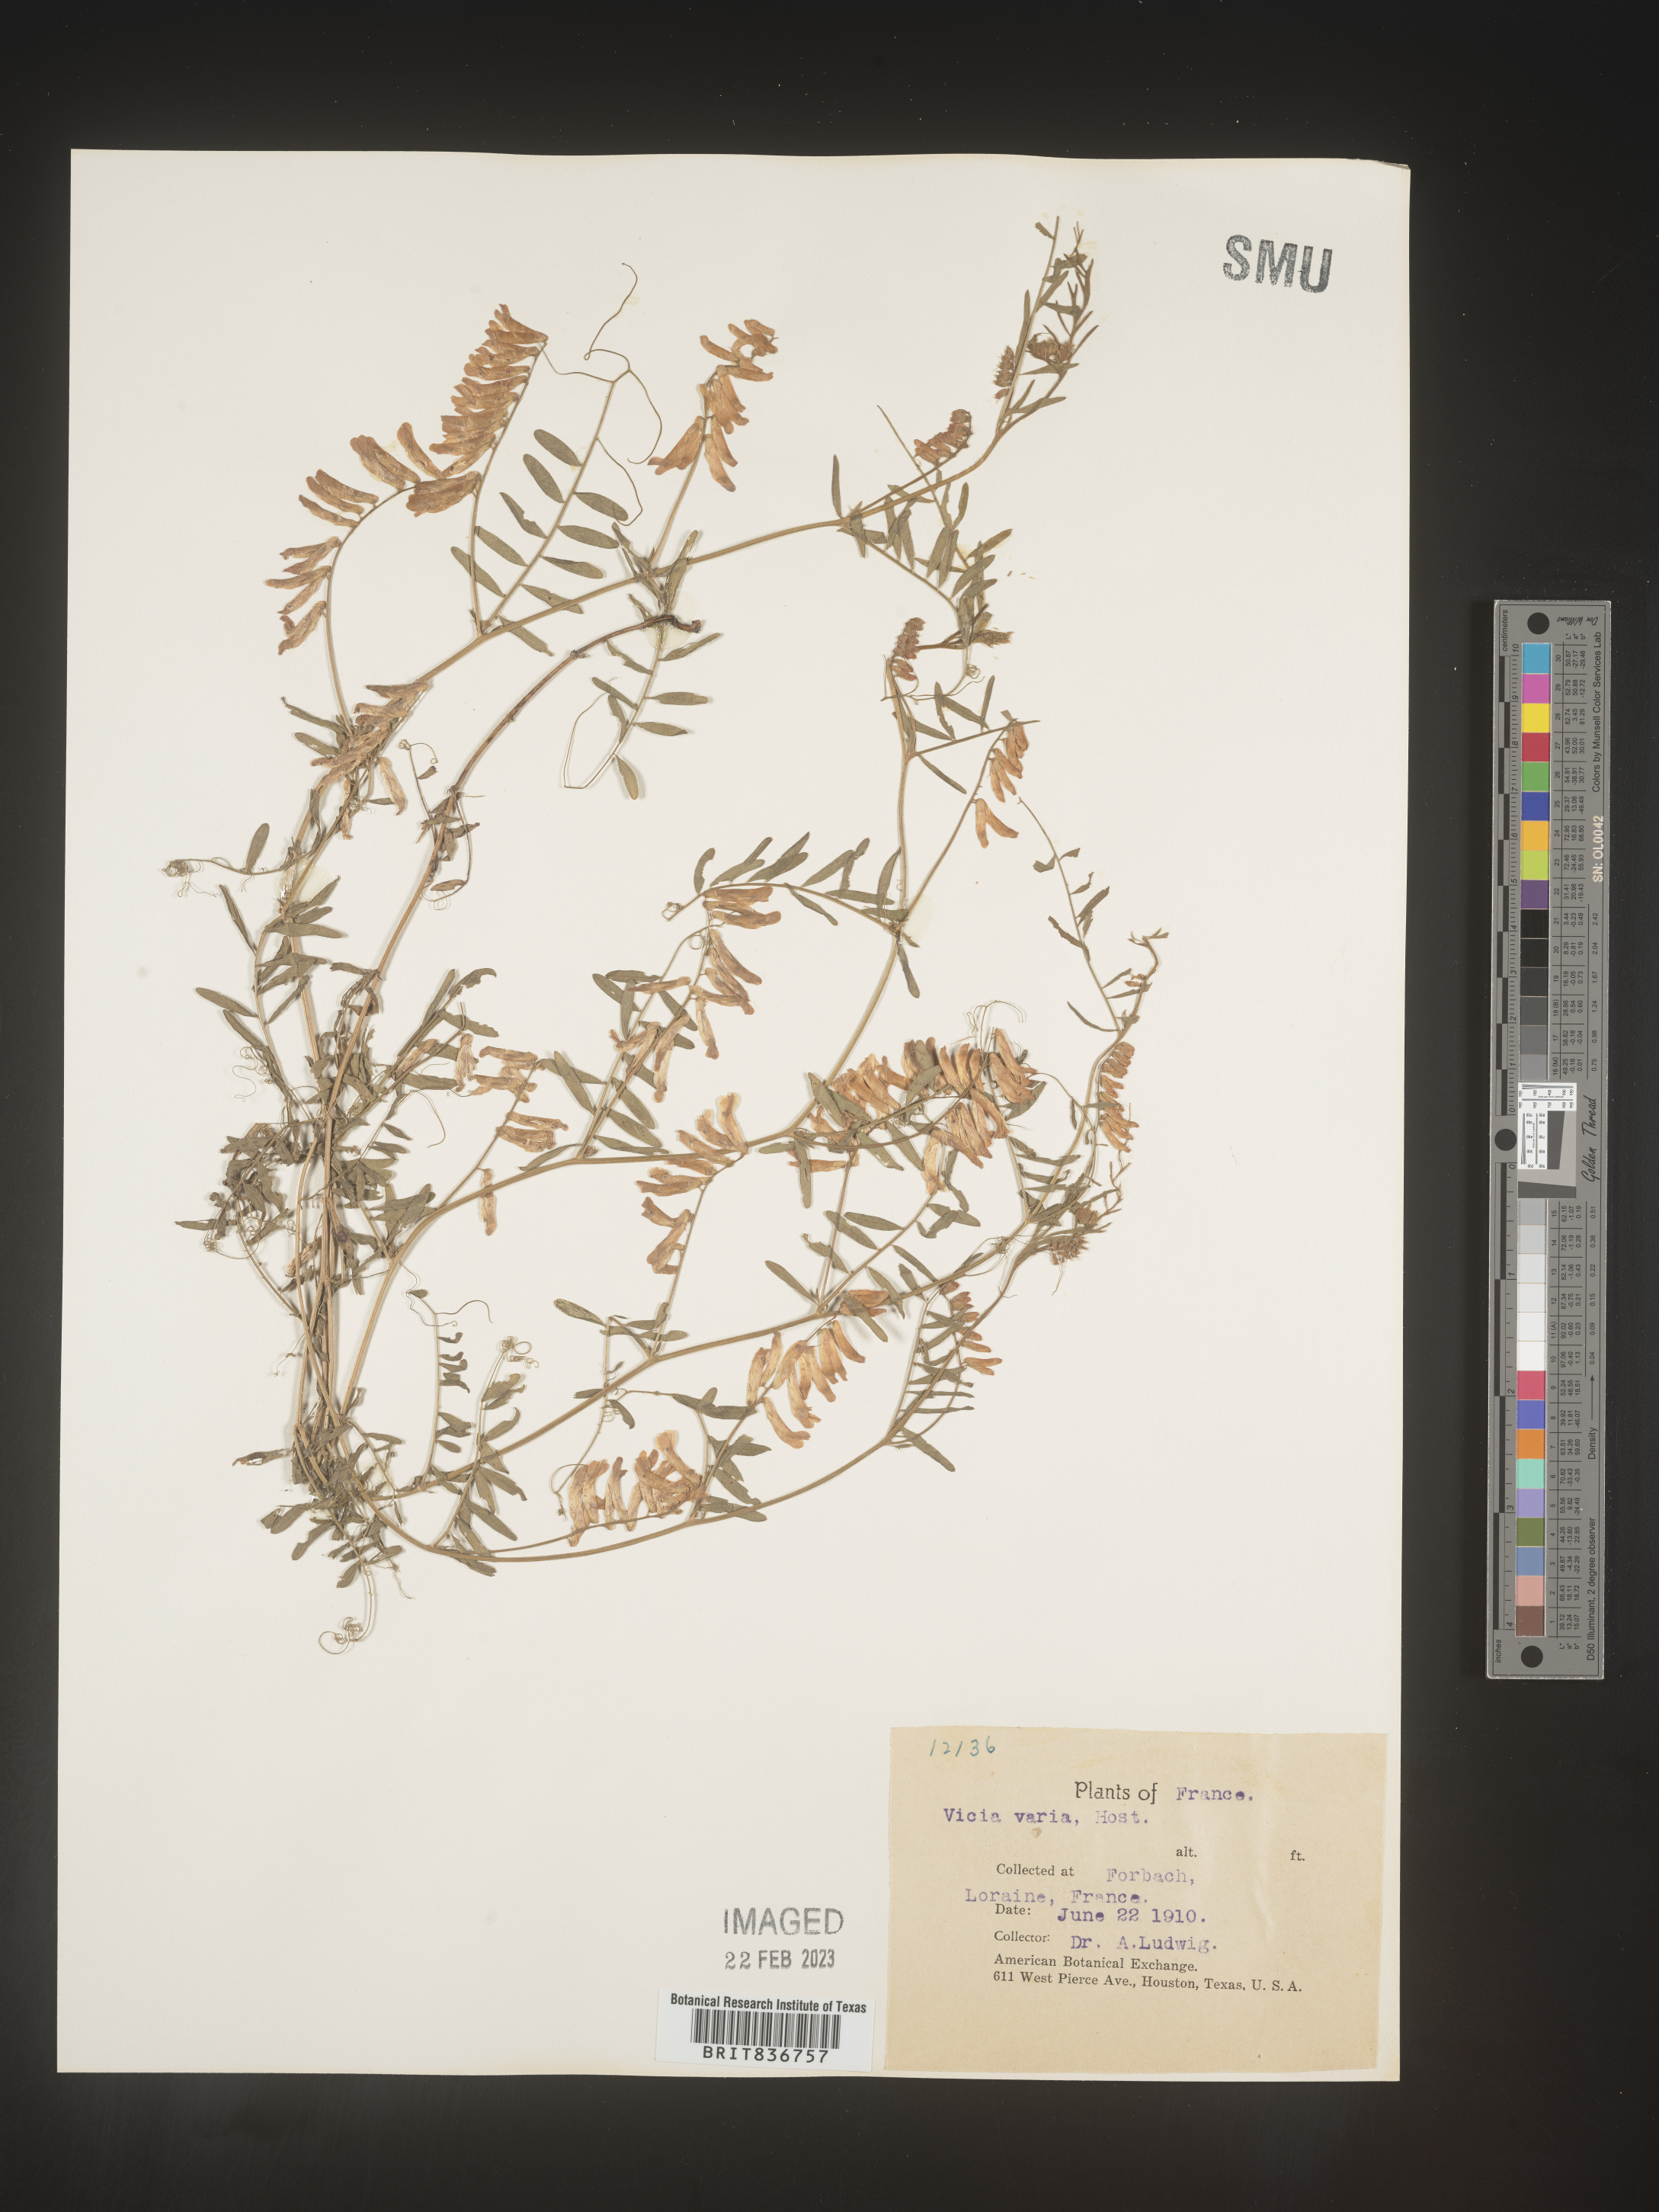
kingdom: Plantae
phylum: Tracheophyta
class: Magnoliopsida
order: Fabales
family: Fabaceae
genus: Vicia
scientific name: Vicia
